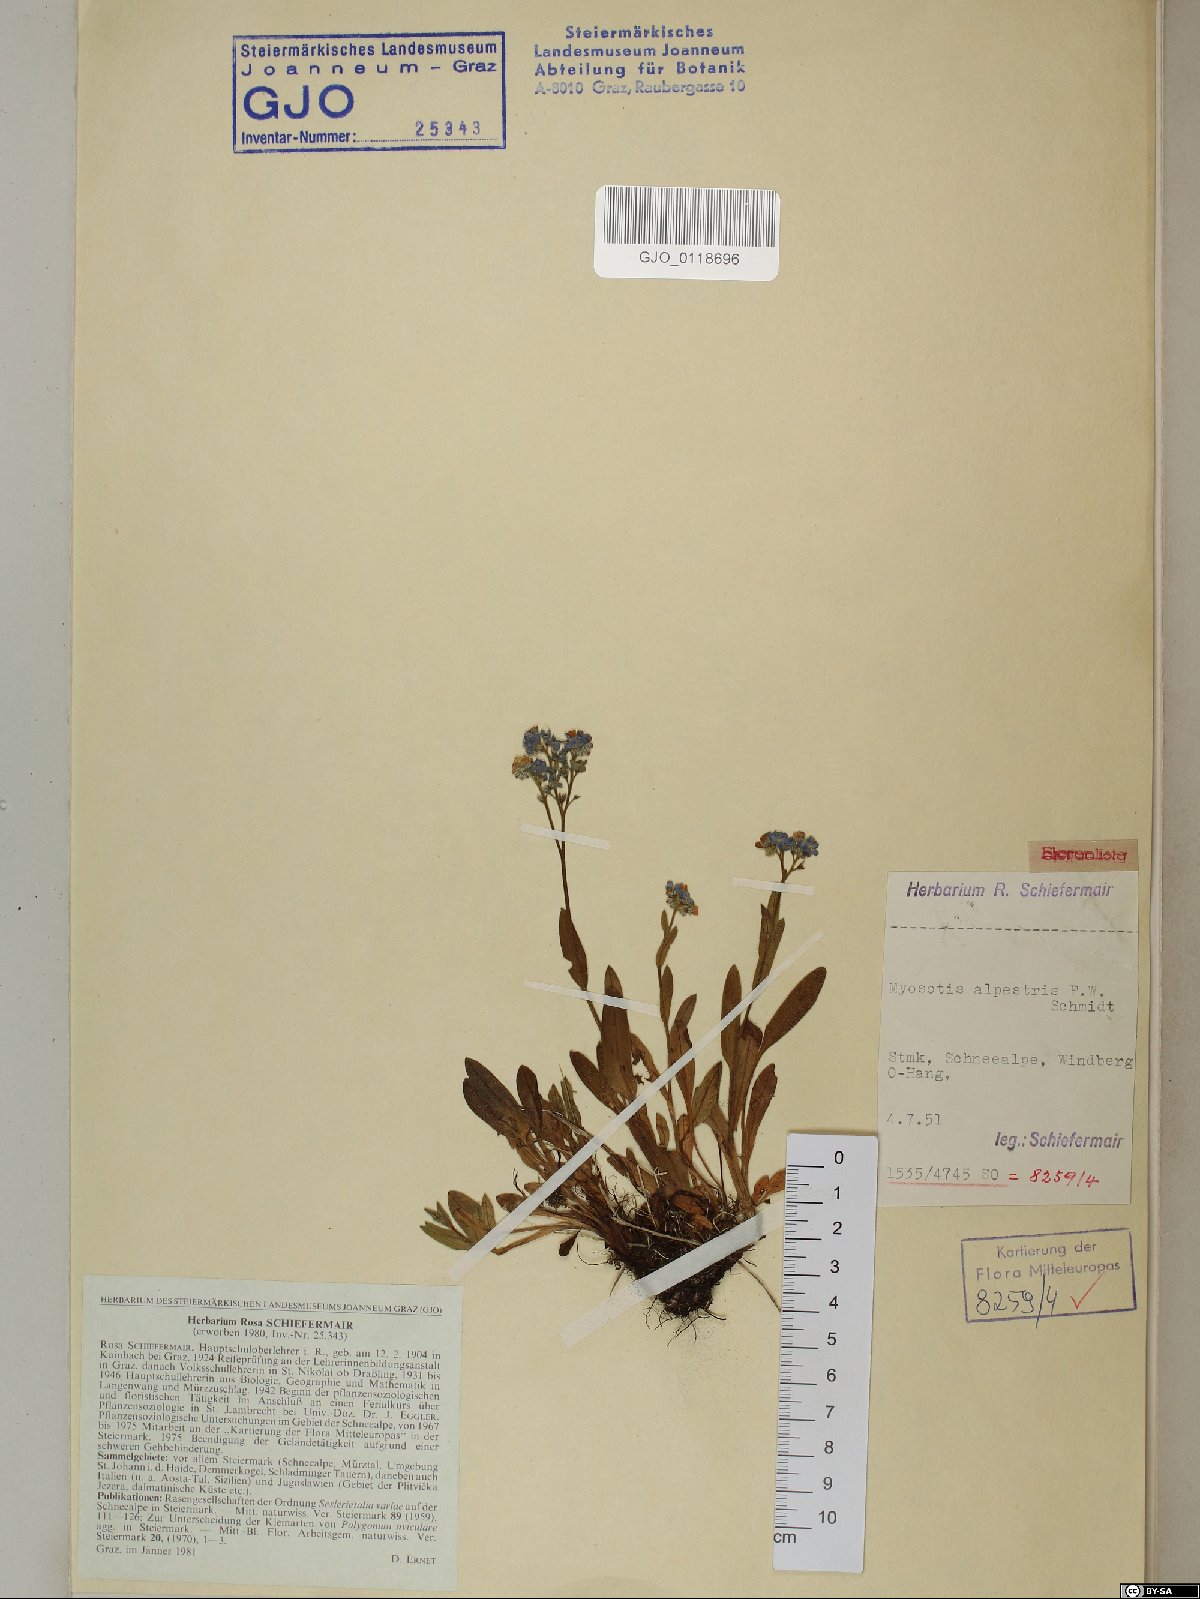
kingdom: Plantae
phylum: Tracheophyta
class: Magnoliopsida
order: Boraginales
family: Boraginaceae
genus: Myosotis
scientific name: Myosotis alpestris
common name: Alpine forget-me-not
